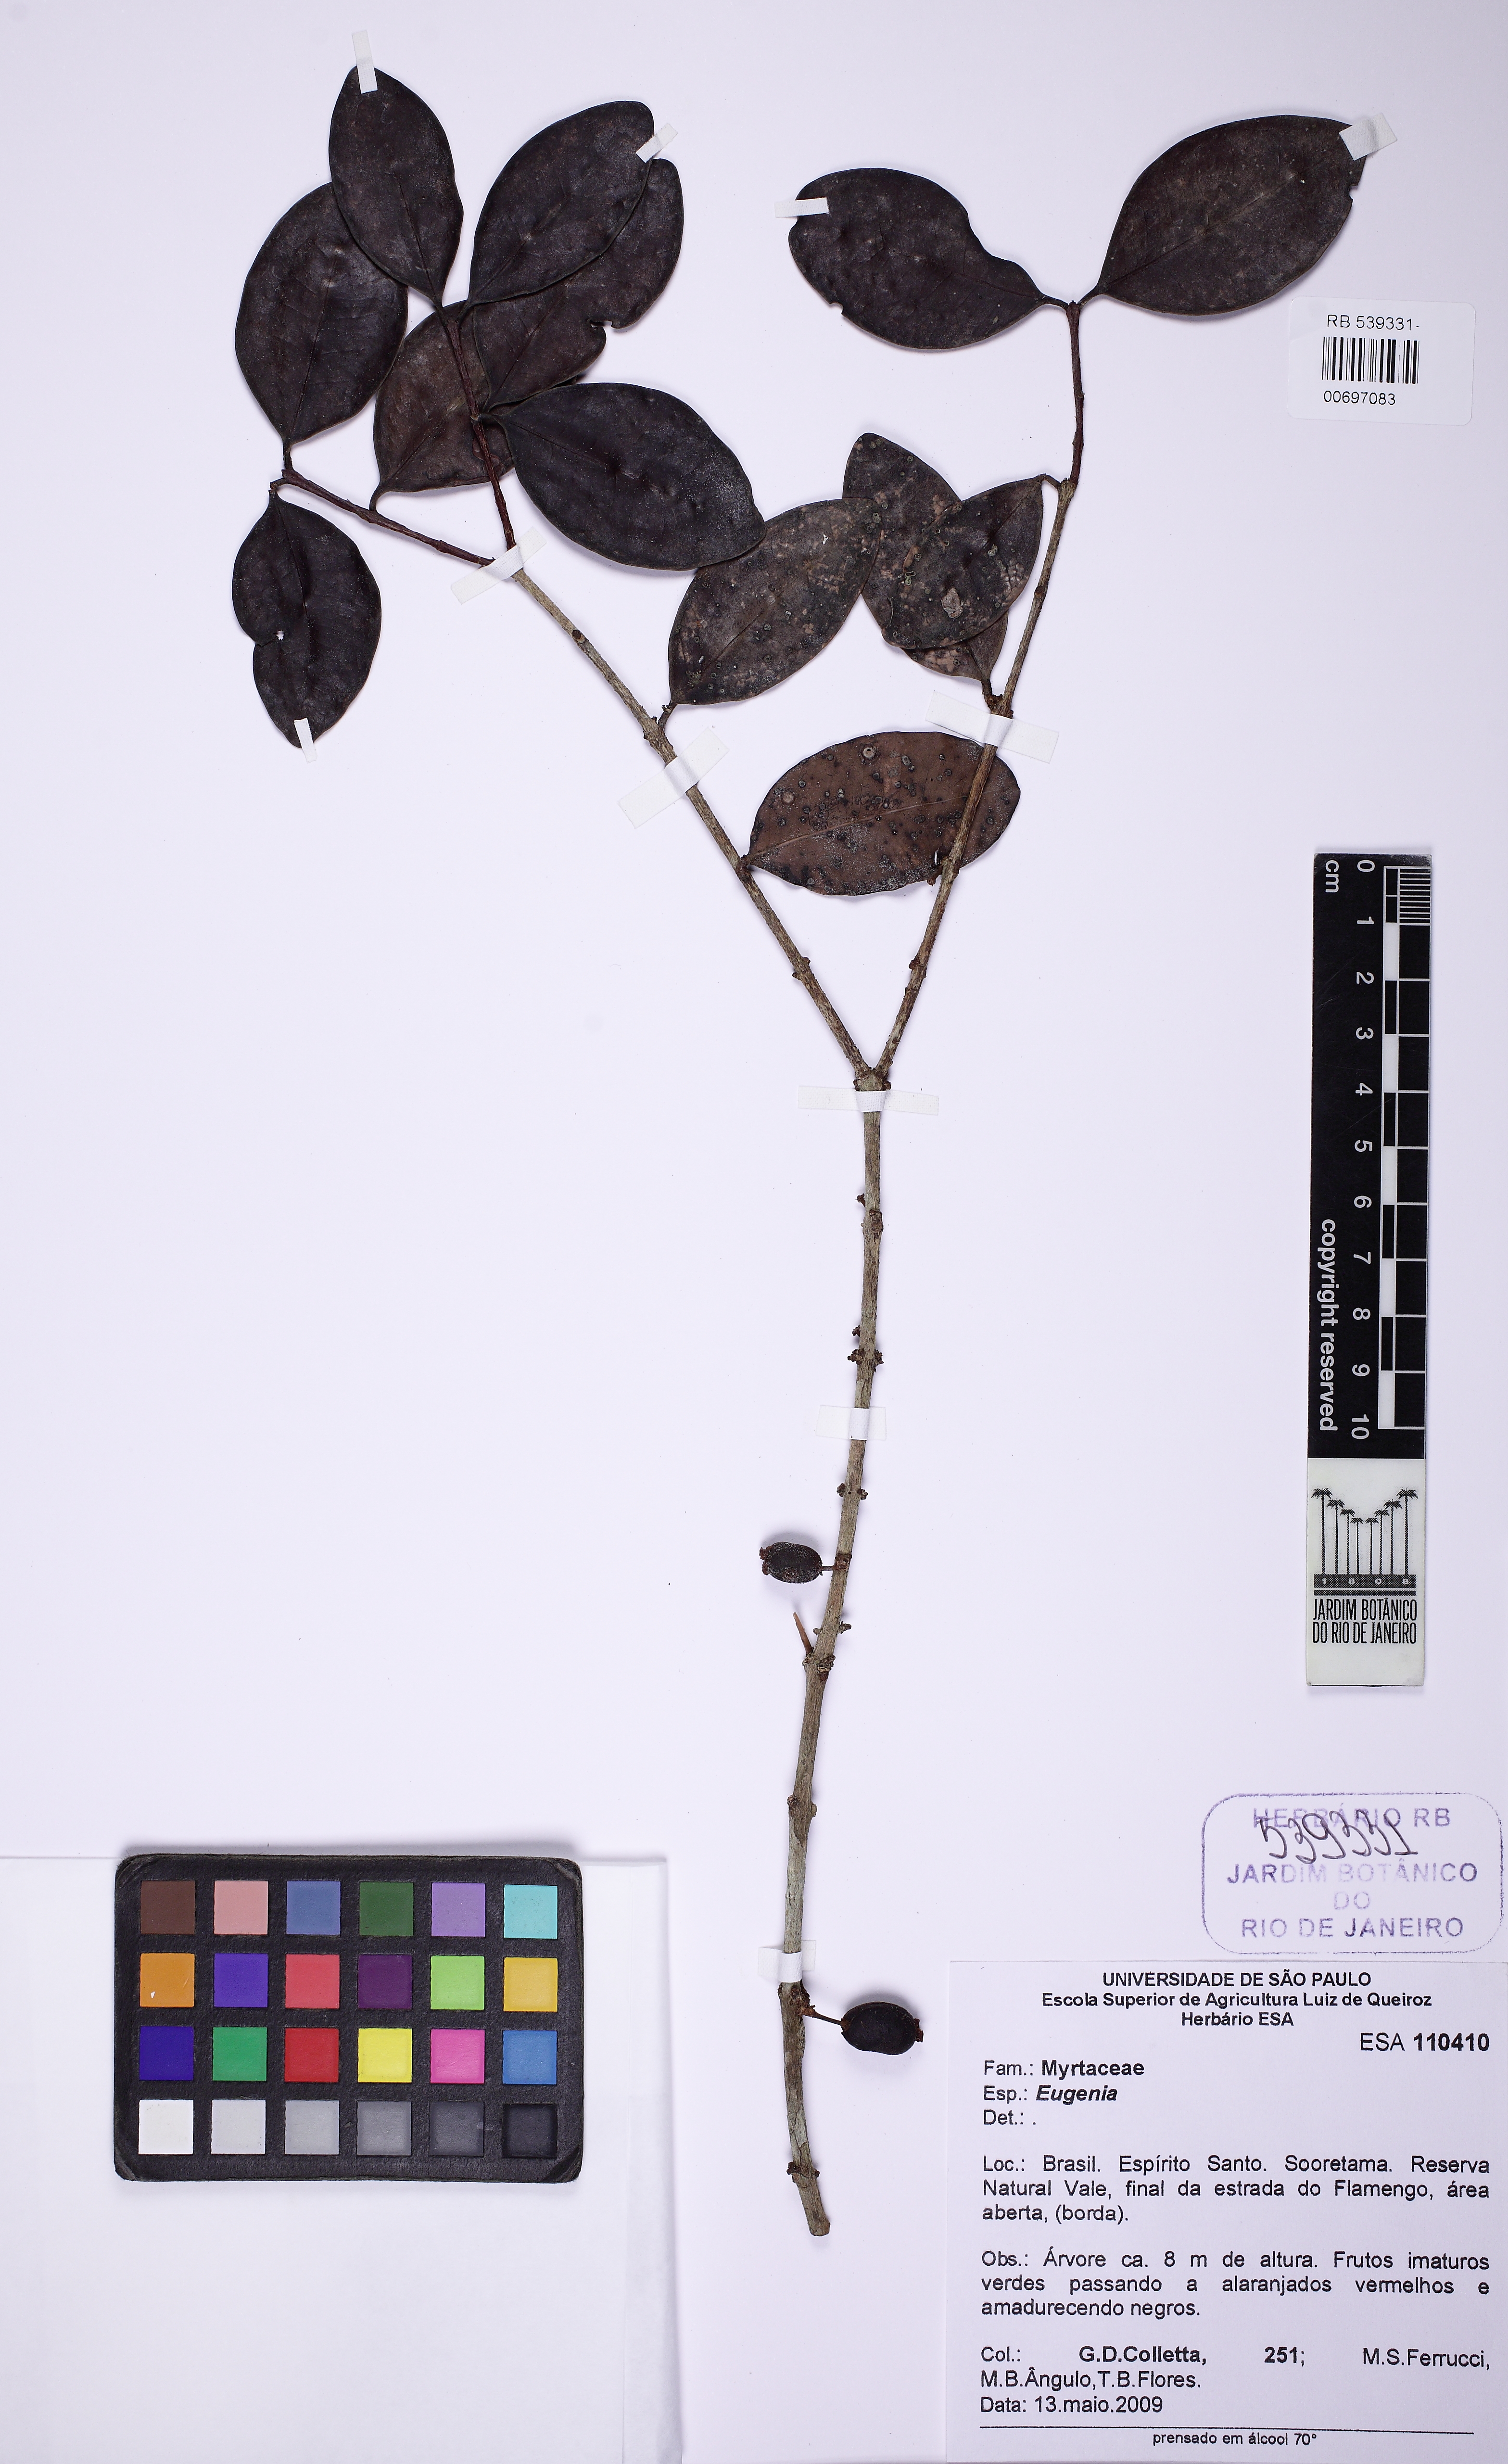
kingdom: Plantae
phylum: Tracheophyta
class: Magnoliopsida
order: Myrtales
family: Myrtaceae
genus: Eugenia
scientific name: Eugenia schottiana
